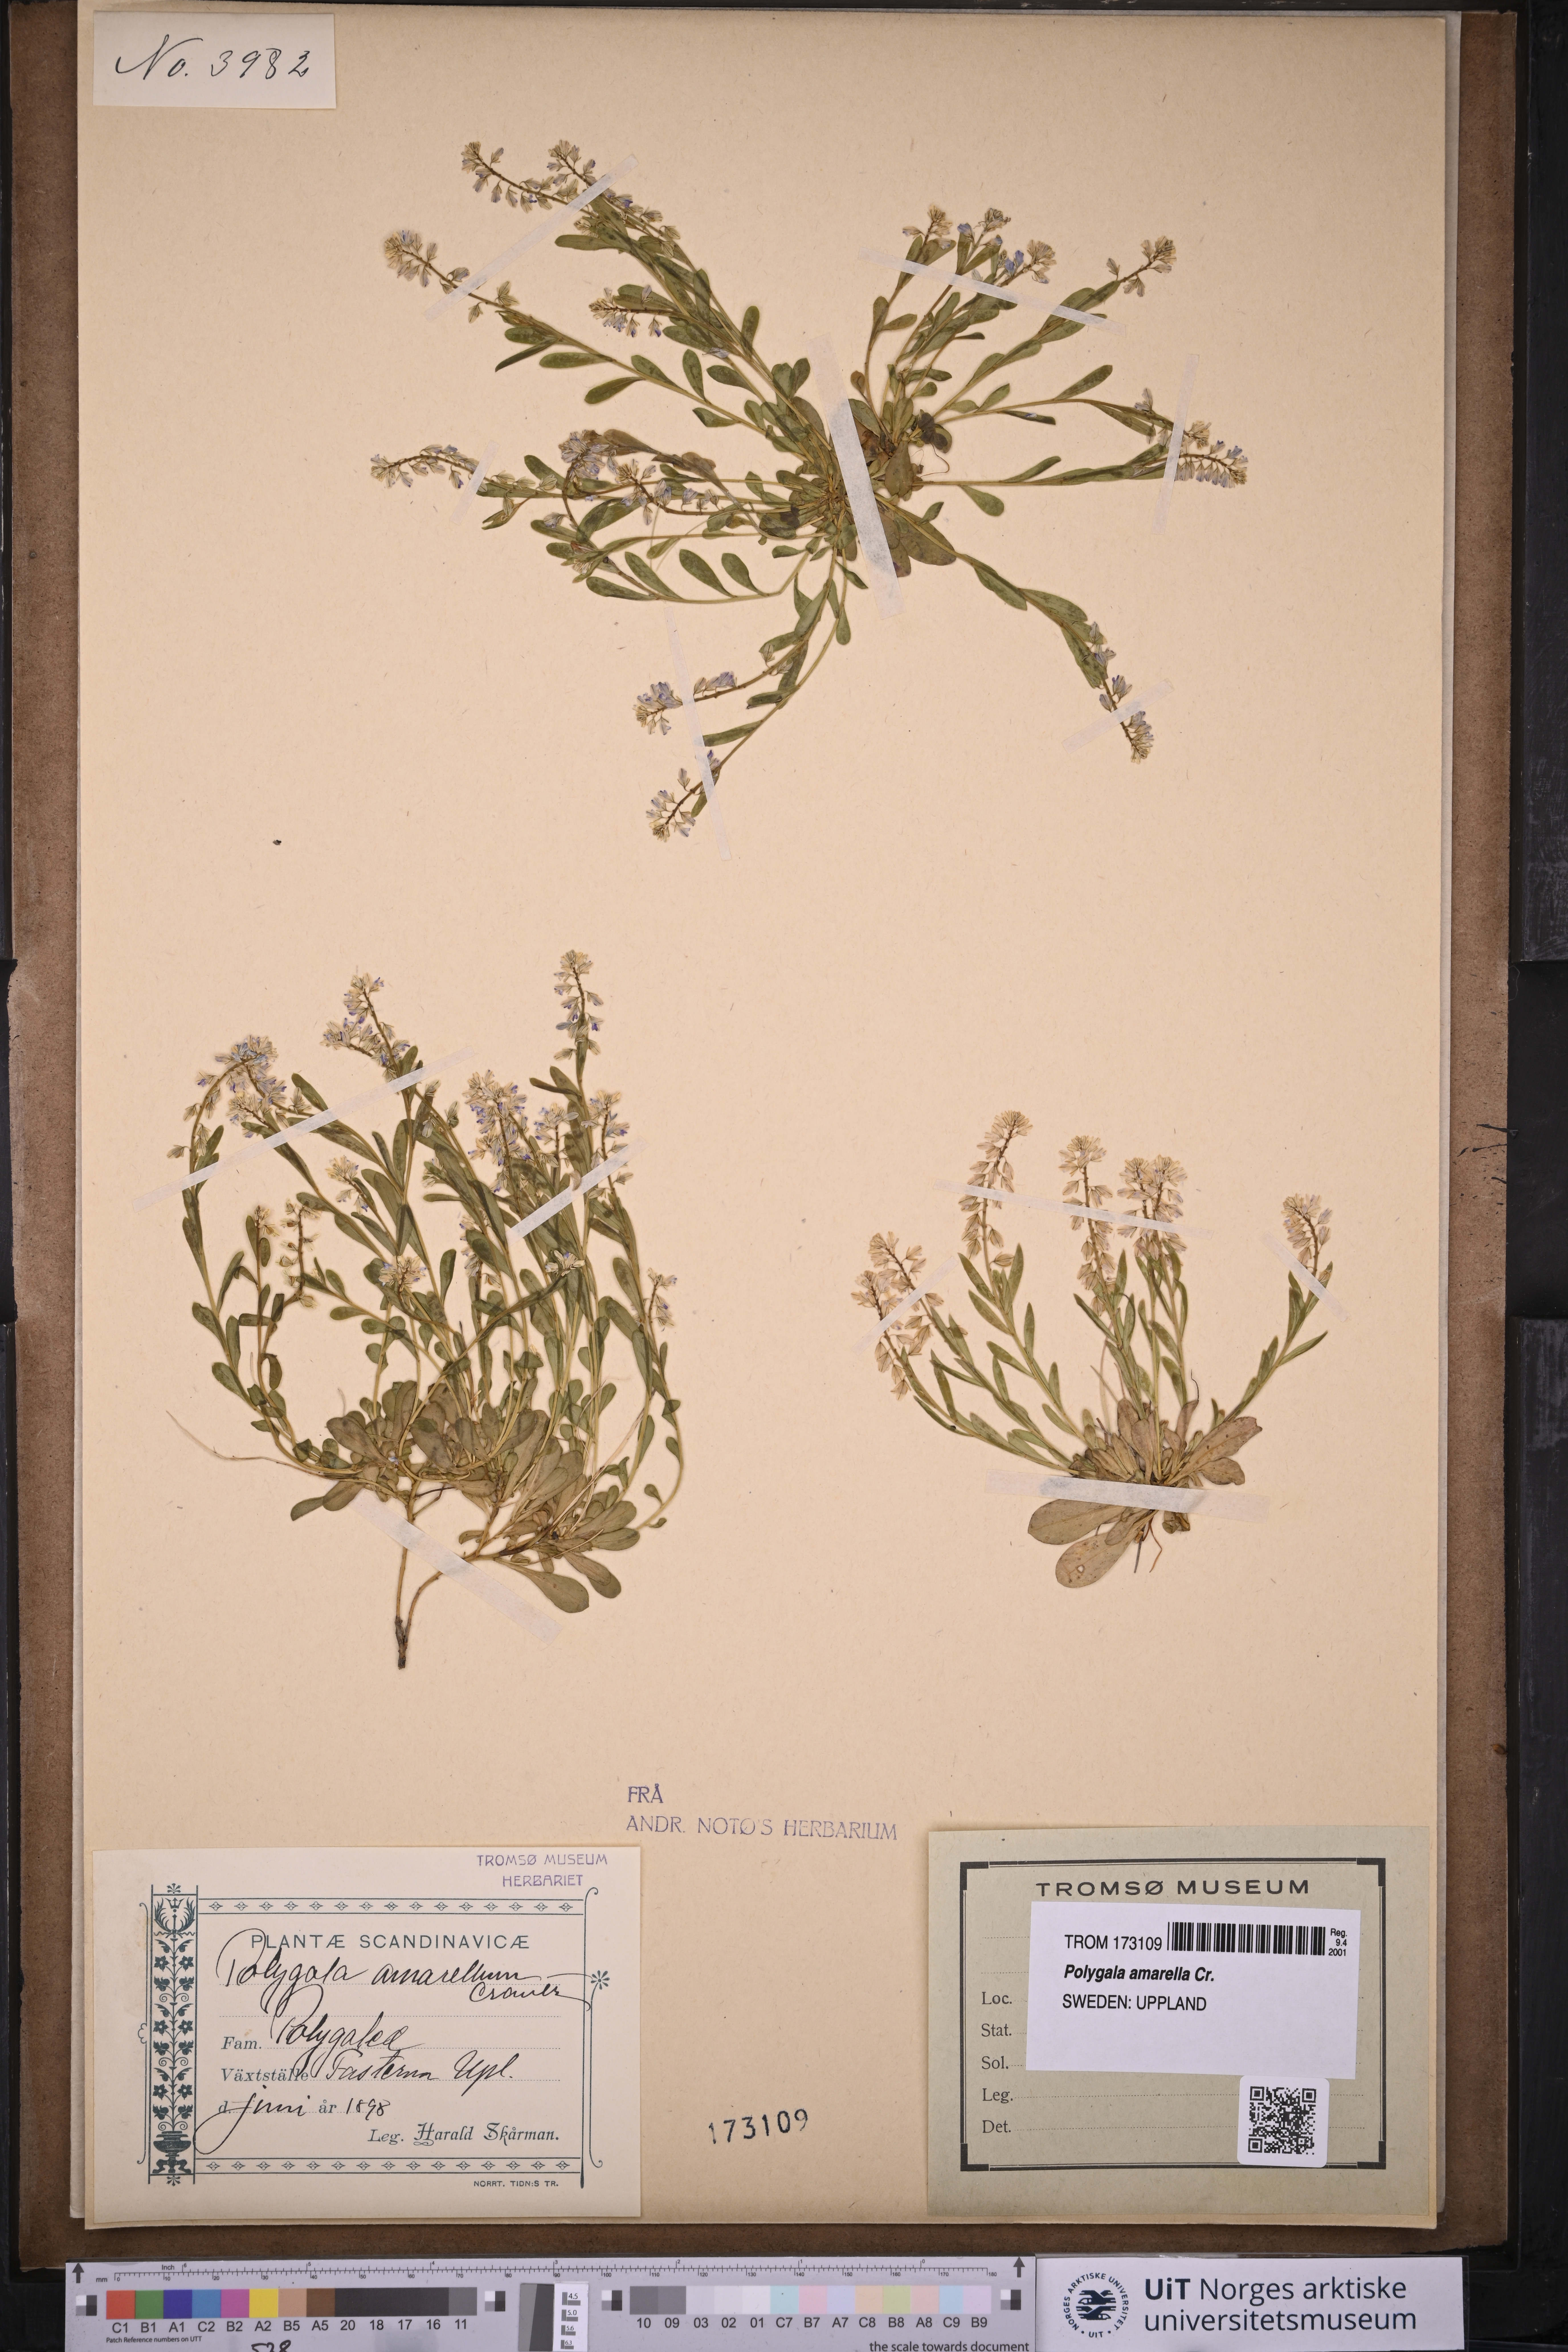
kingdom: Plantae
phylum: Tracheophyta
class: Magnoliopsida
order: Fabales
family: Polygalaceae
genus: Polygala
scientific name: Polygala amarella
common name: Dwarf milkwort
